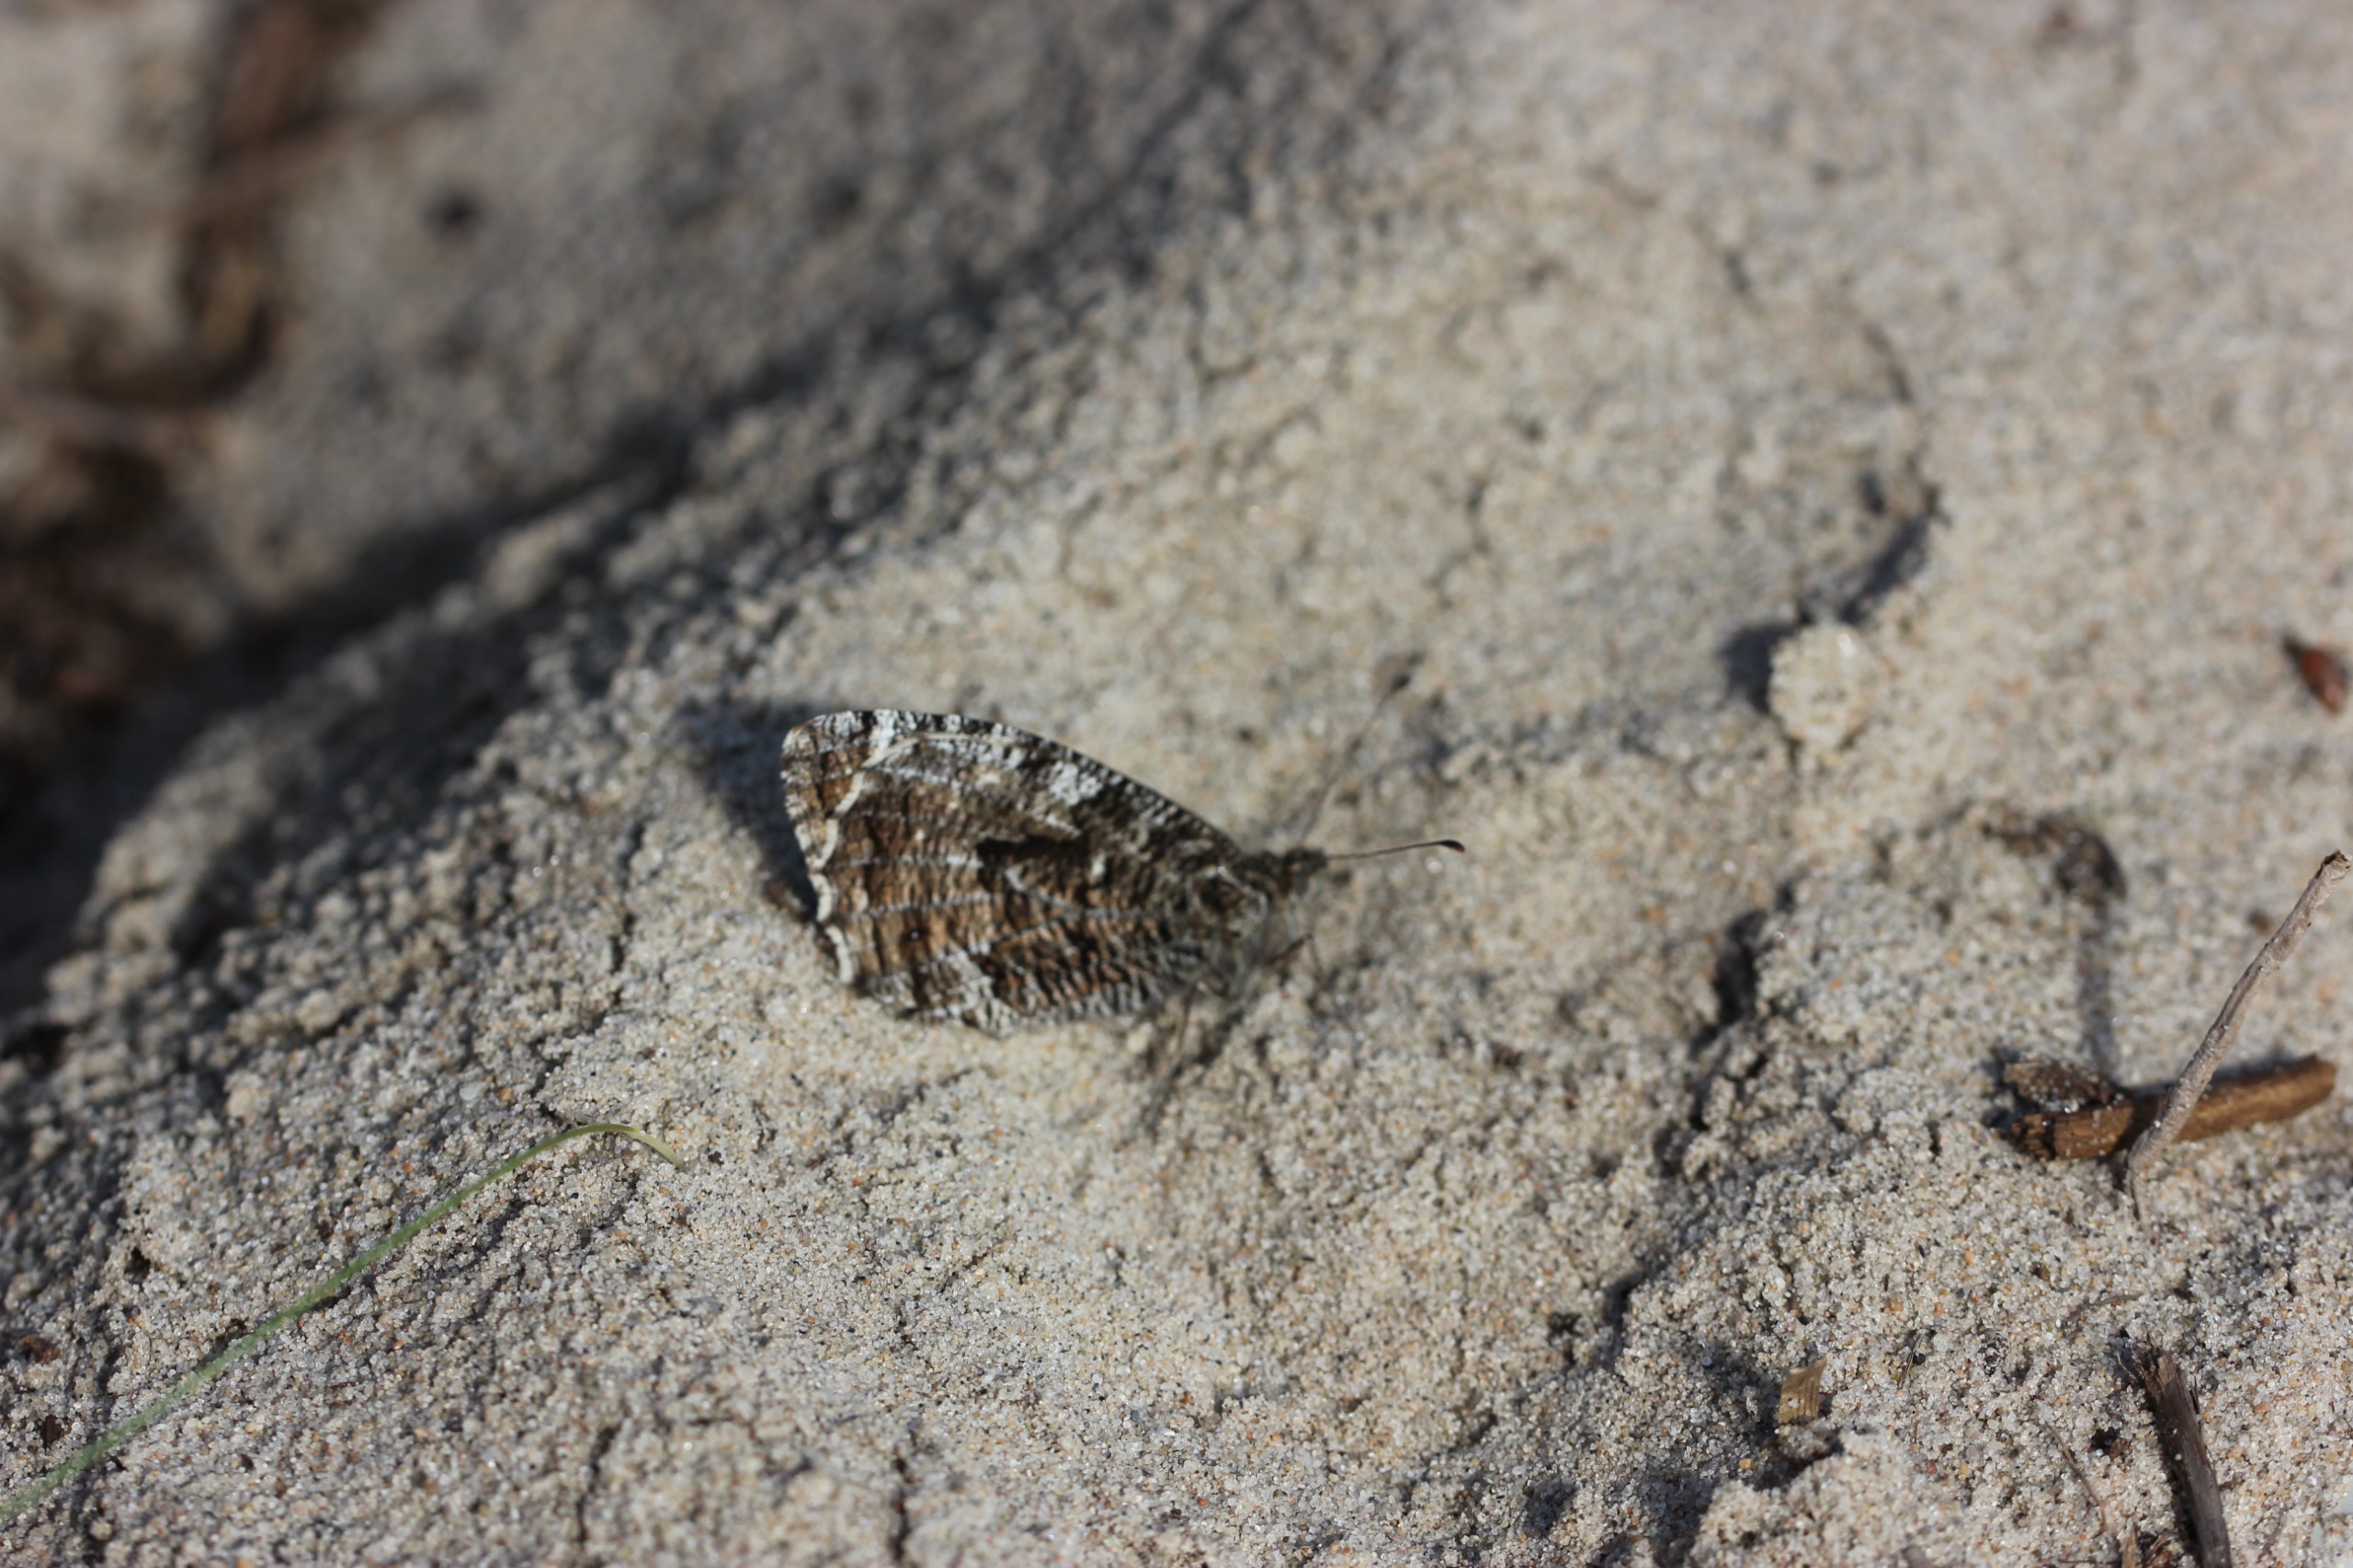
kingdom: Animalia
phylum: Arthropoda
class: Insecta
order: Lepidoptera
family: Nymphalidae
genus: Hipparchia
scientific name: Hipparchia semele
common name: Sandrandøje
